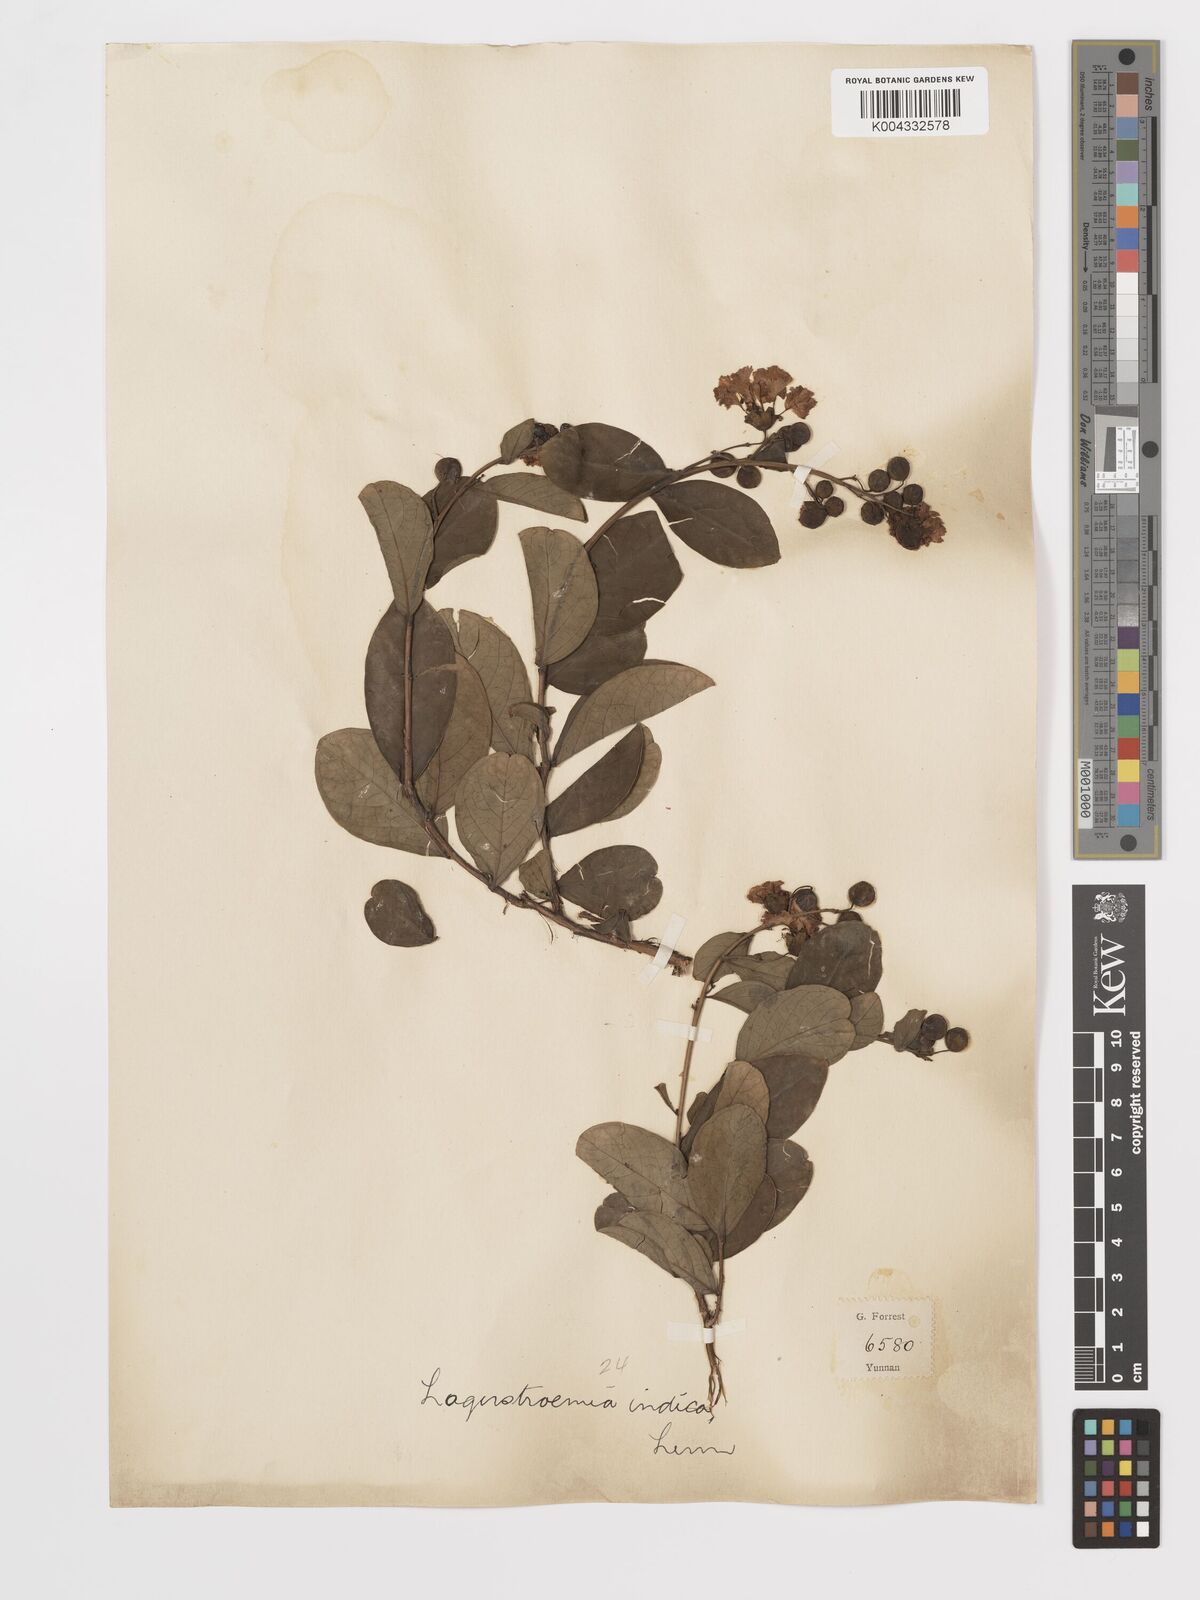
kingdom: Plantae
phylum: Tracheophyta
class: Magnoliopsida
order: Myrtales
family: Lythraceae
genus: Lagerstroemia
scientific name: Lagerstroemia indica
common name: Crape-myrtle
